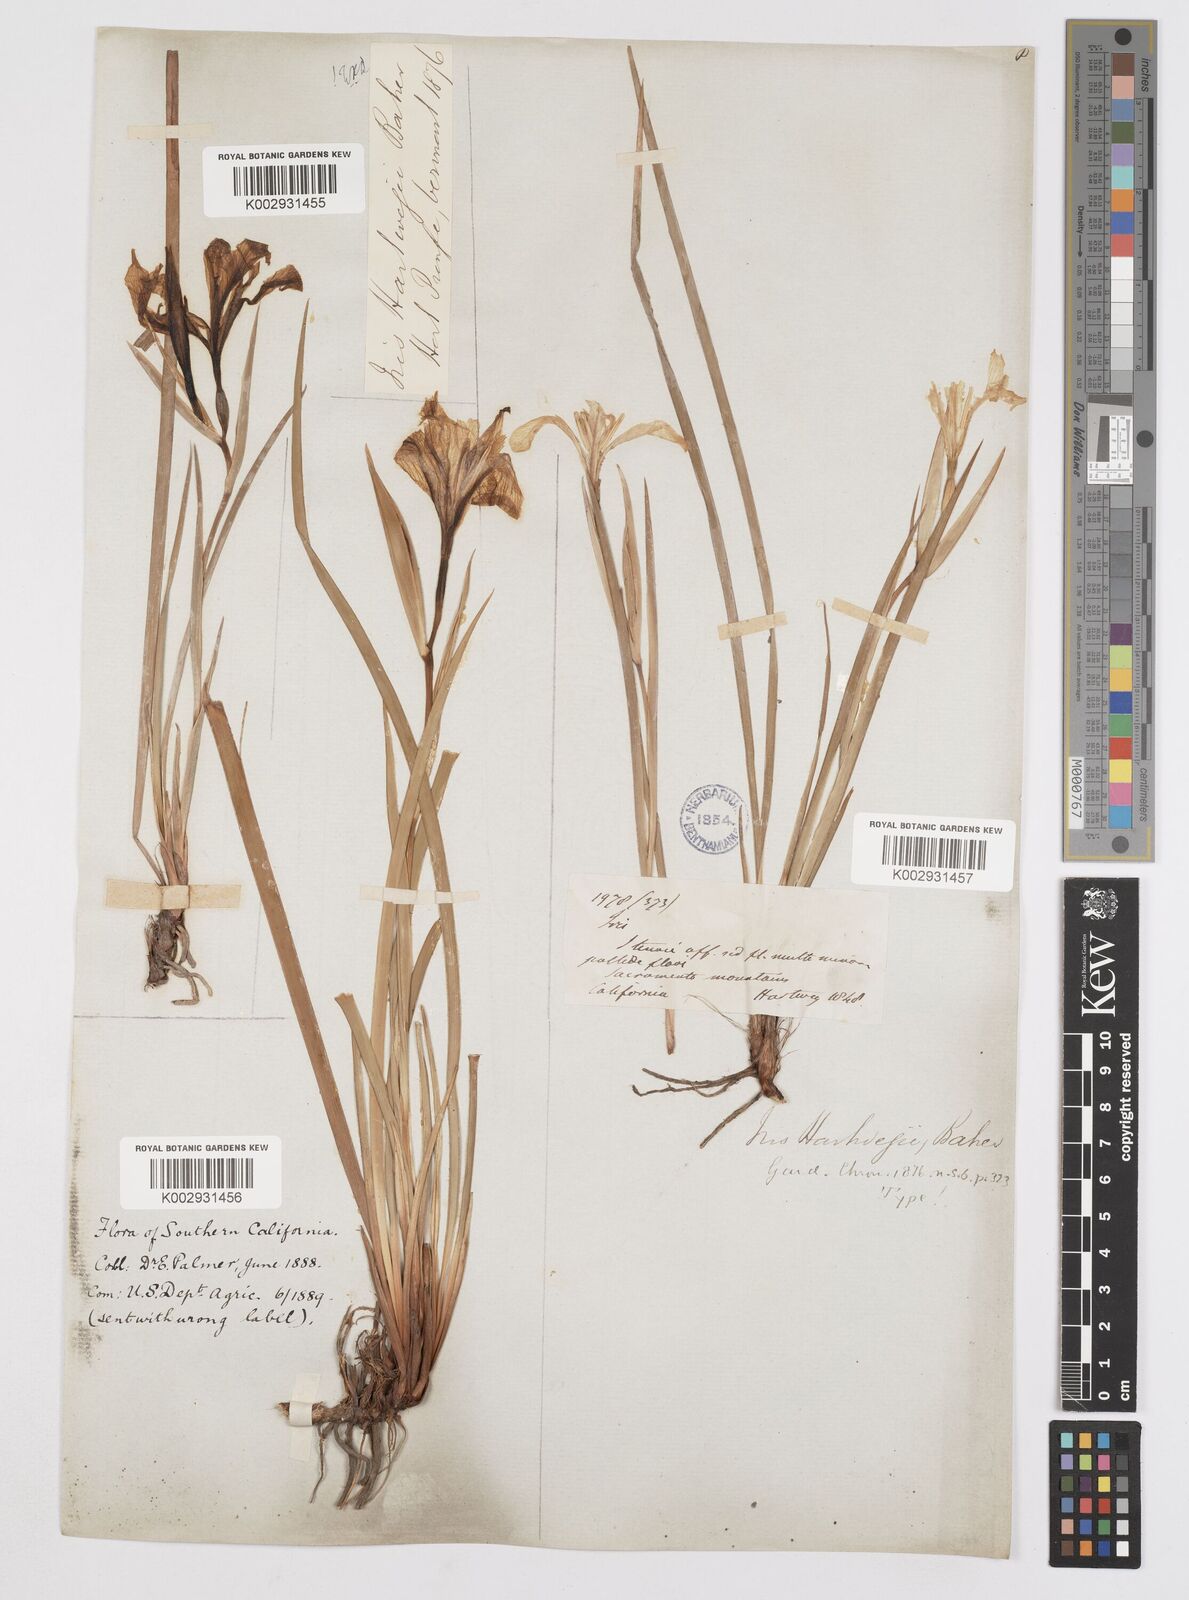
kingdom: Plantae
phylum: Tracheophyta
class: Liliopsida
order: Asparagales
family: Iridaceae
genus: Iris
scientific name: Iris hartwegii
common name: Sierra iris
